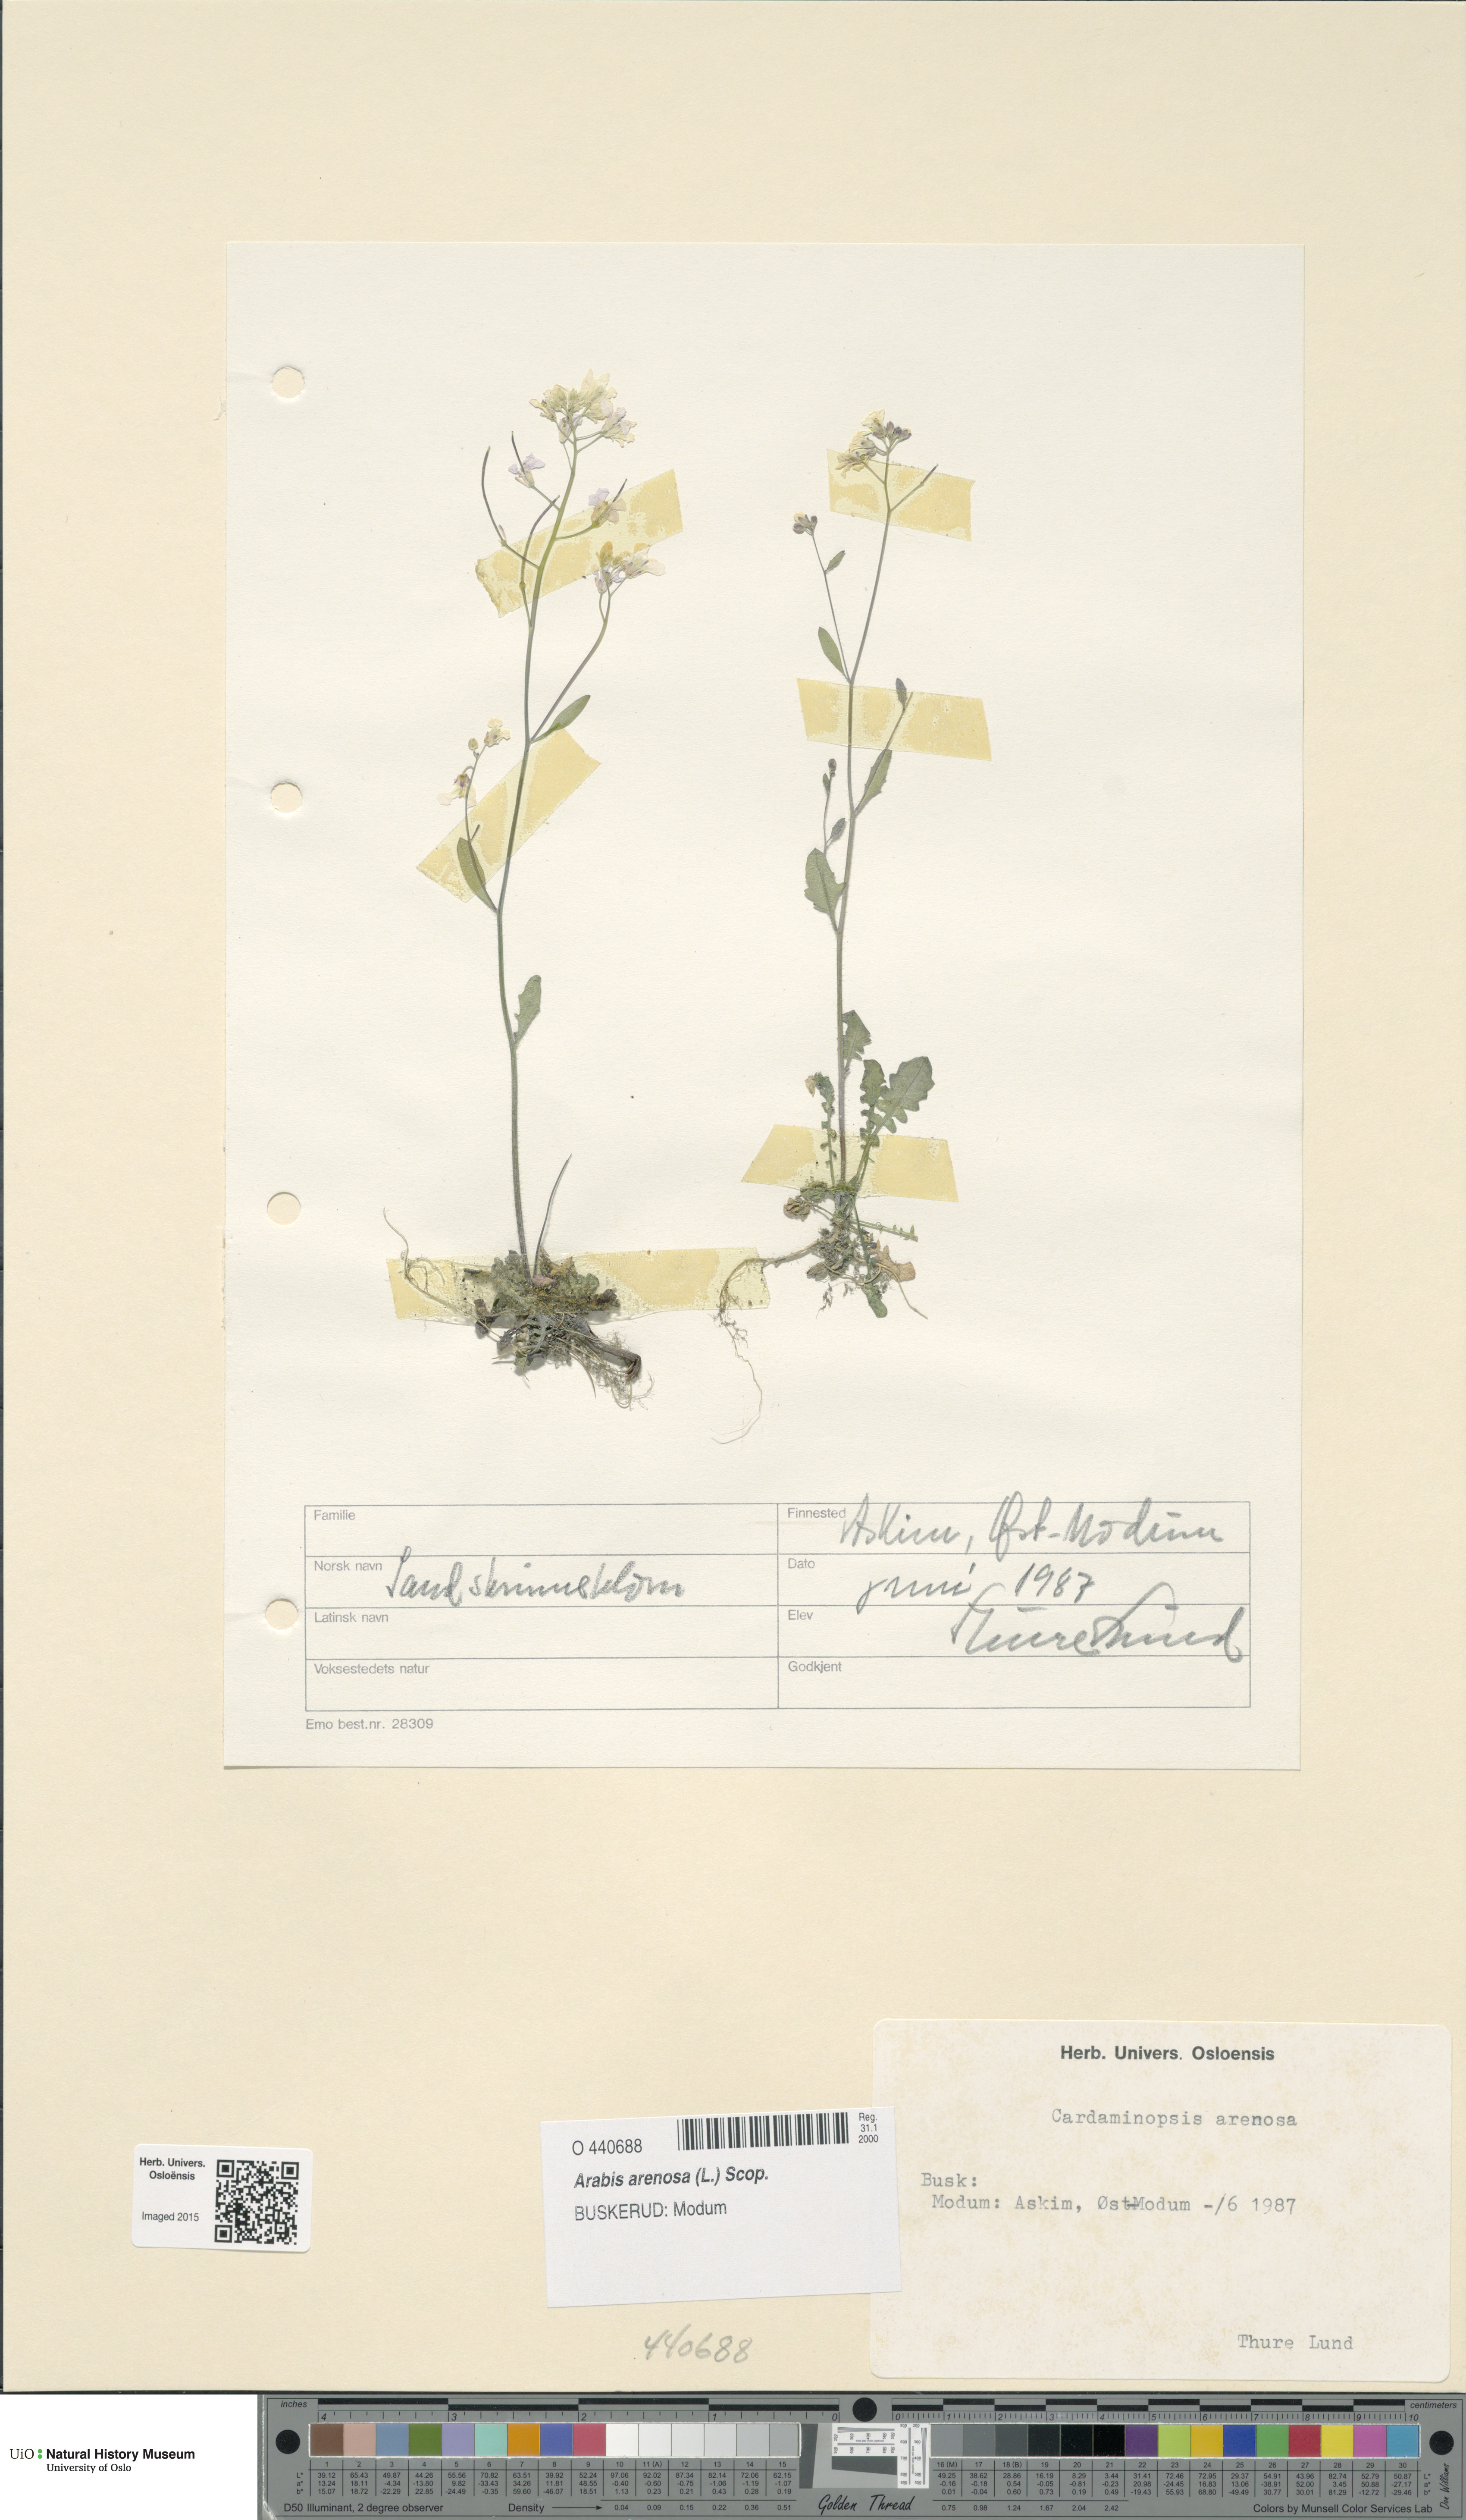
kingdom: Plantae
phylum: Tracheophyta
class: Magnoliopsida
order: Brassicales
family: Brassicaceae
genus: Arabidopsis
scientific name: Arabidopsis arenosa
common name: Sand rock-cress
